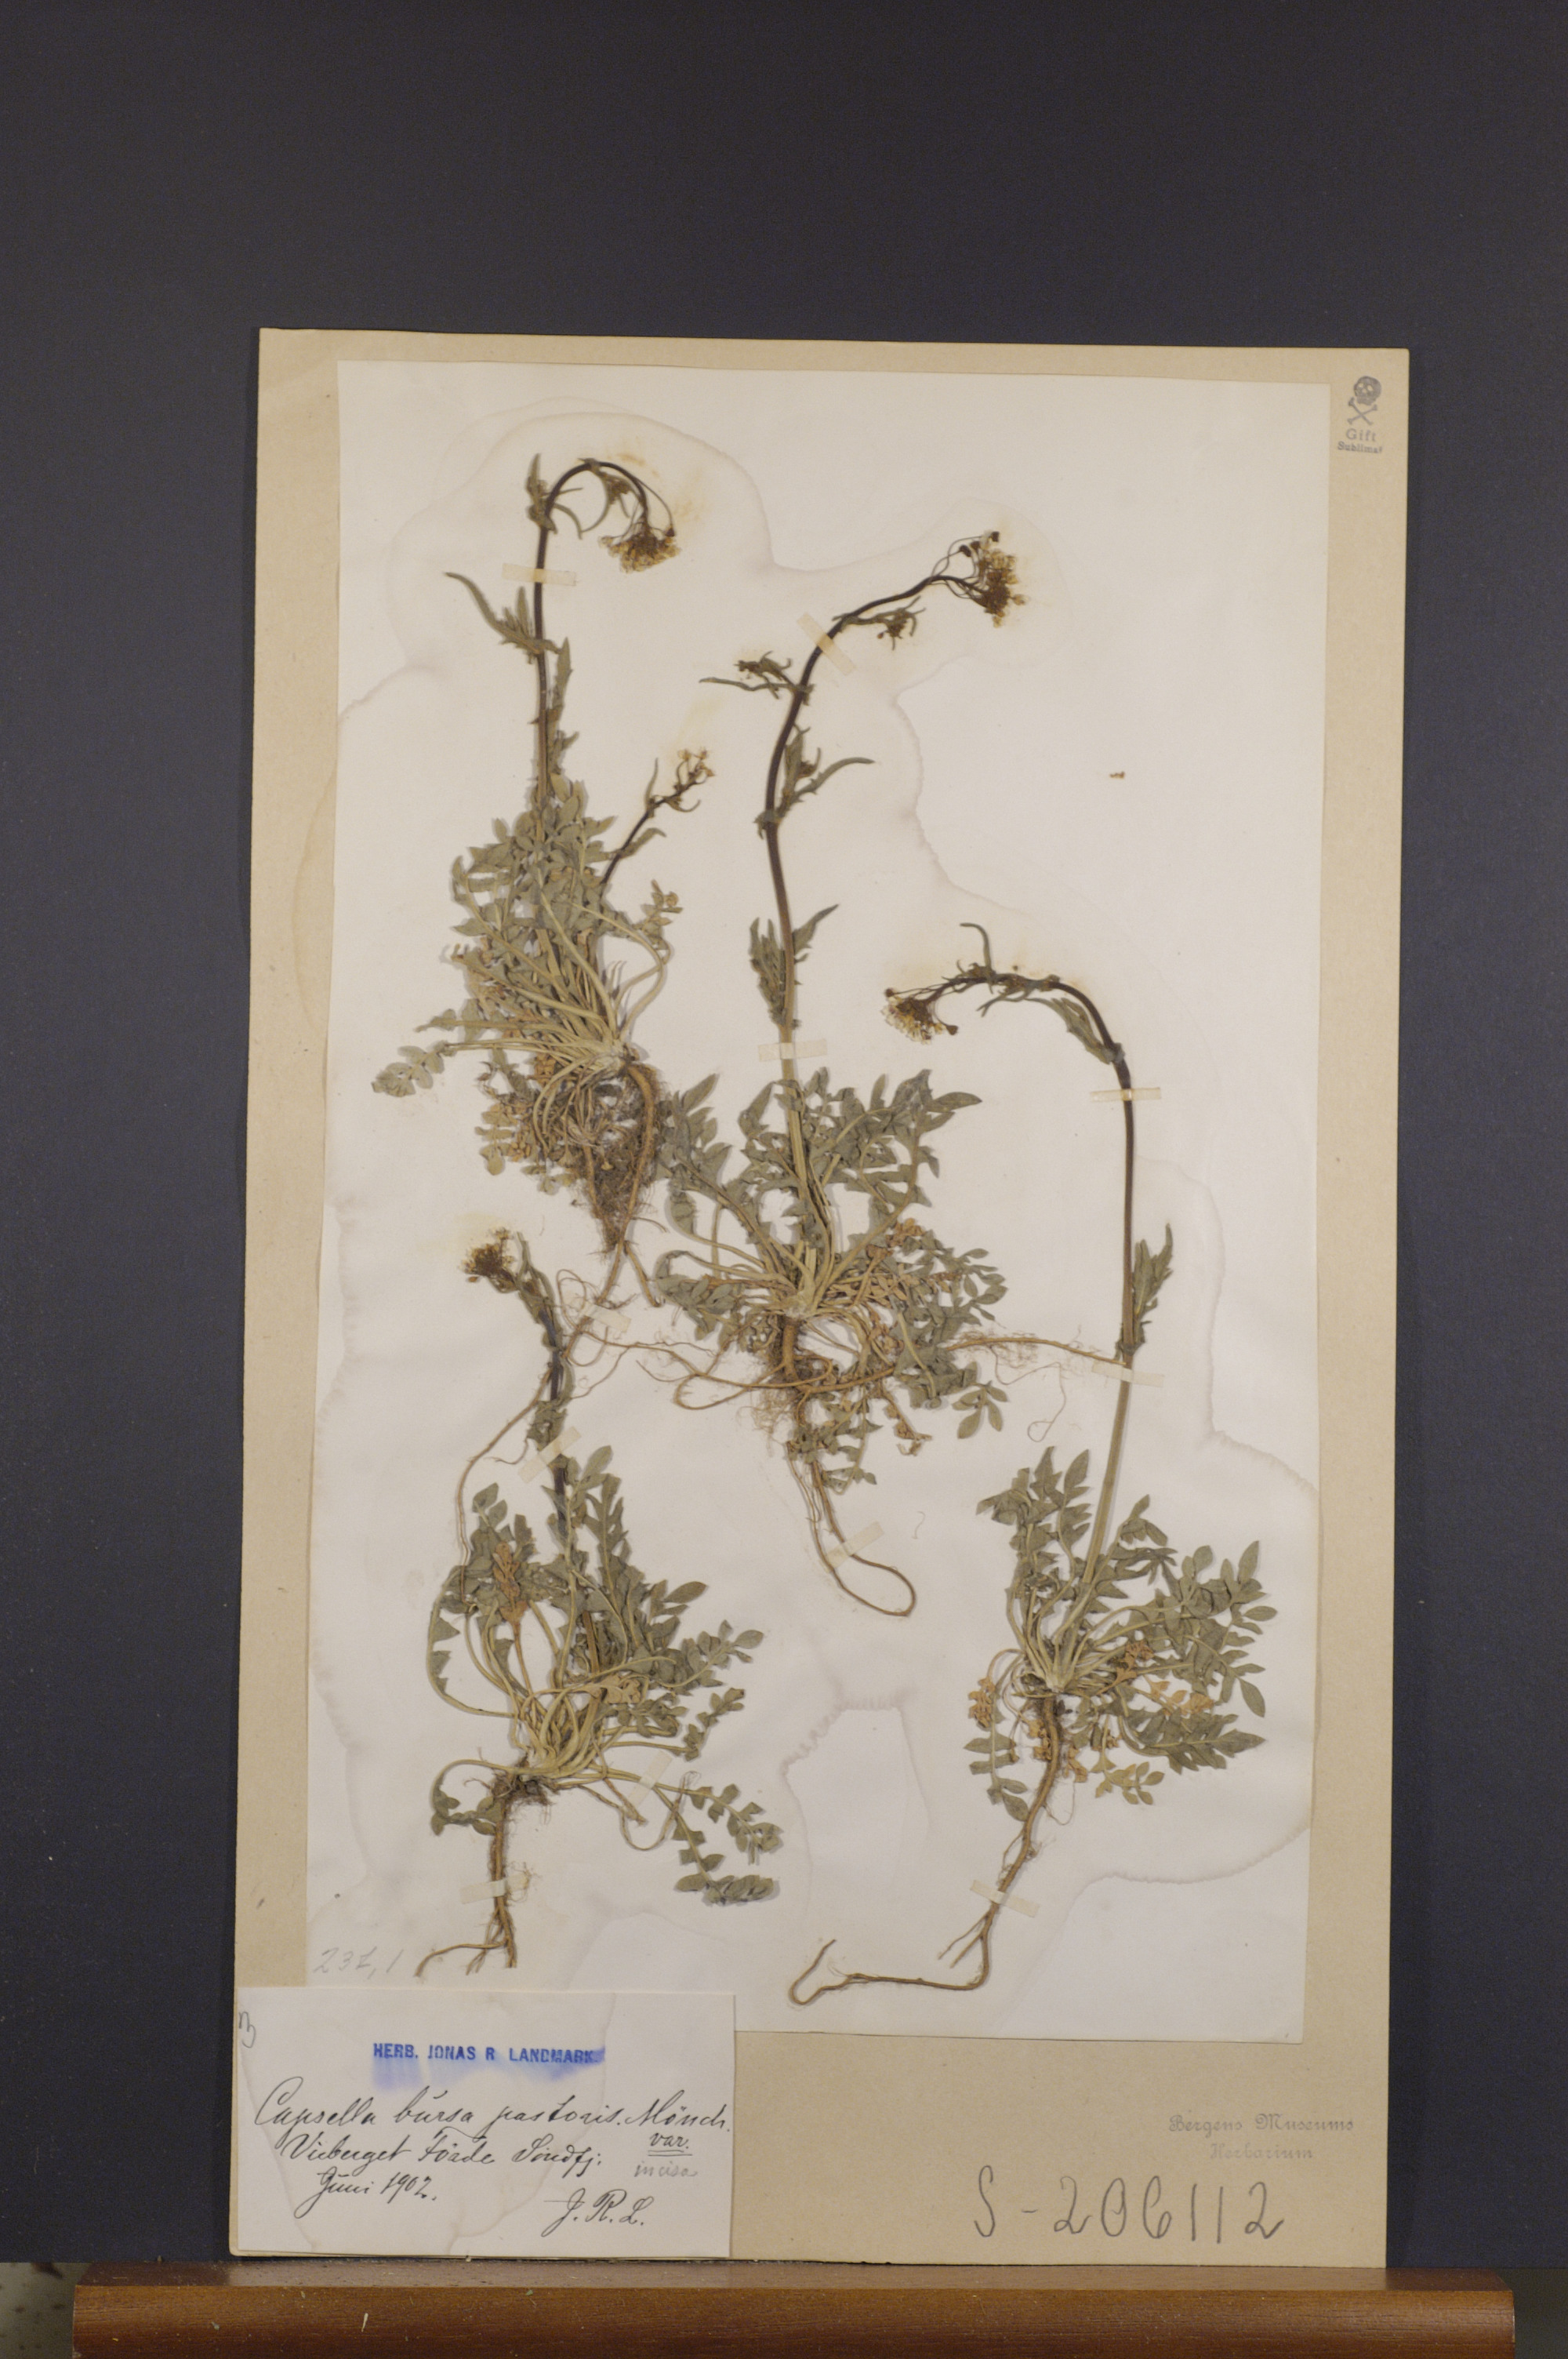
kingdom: Plantae
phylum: Tracheophyta
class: Magnoliopsida
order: Brassicales
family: Brassicaceae
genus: Capsella
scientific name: Capsella bursa-pastoris
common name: Shepherd's purse
